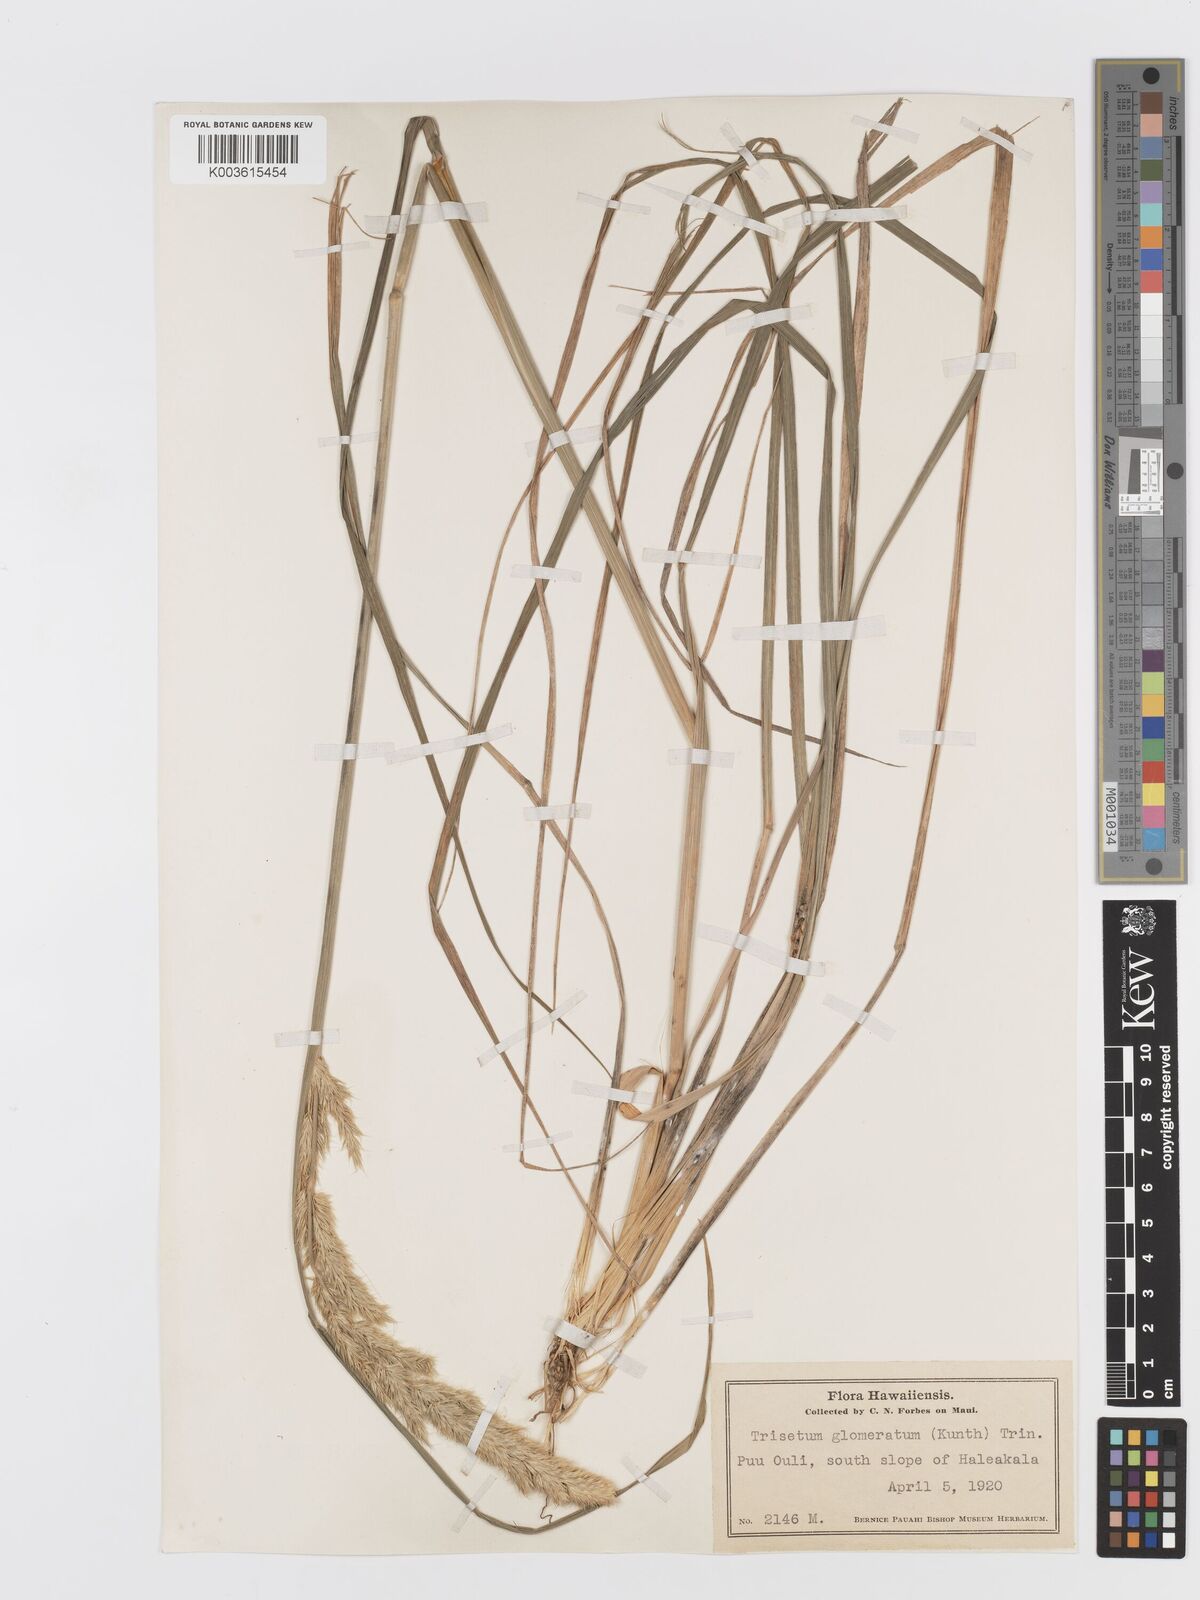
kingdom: Plantae
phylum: Tracheophyta
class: Liliopsida
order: Poales
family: Poaceae
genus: Trisetum
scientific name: Trisetum glomeratum
